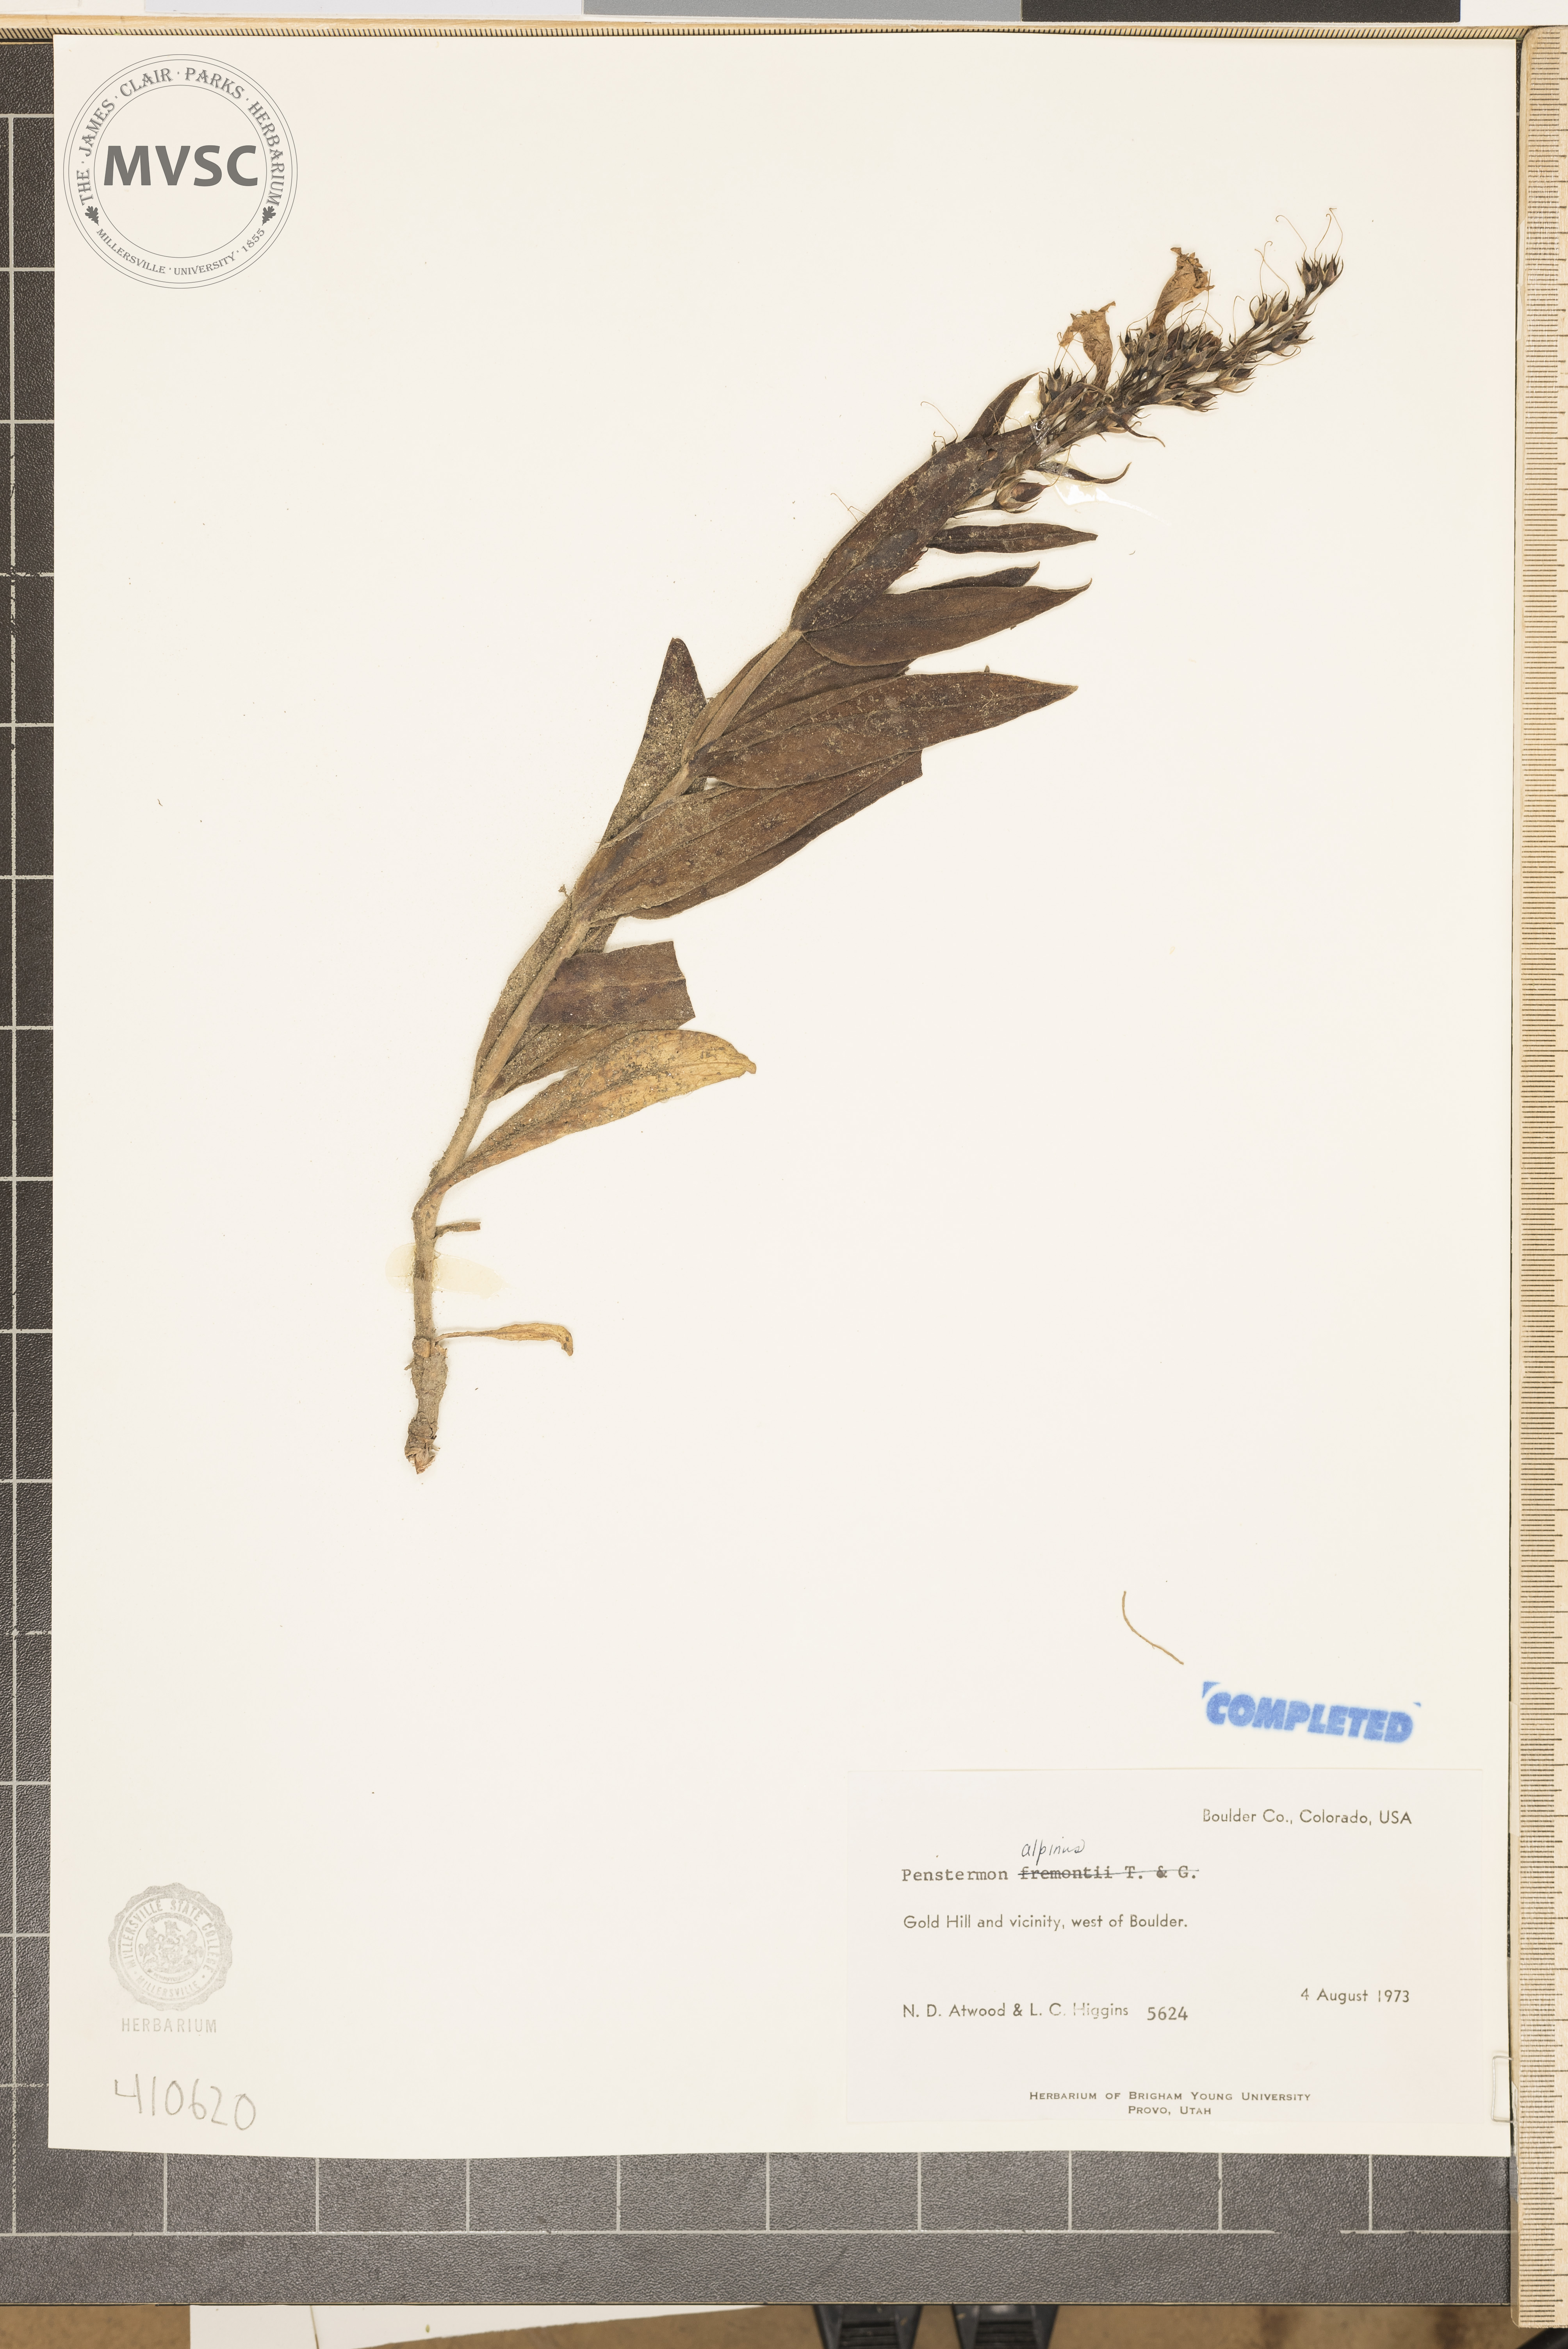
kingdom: Plantae
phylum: Tracheophyta
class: Magnoliopsida
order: Lamiales
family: Plantaginaceae
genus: Penstemon
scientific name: Penstemon glaber
